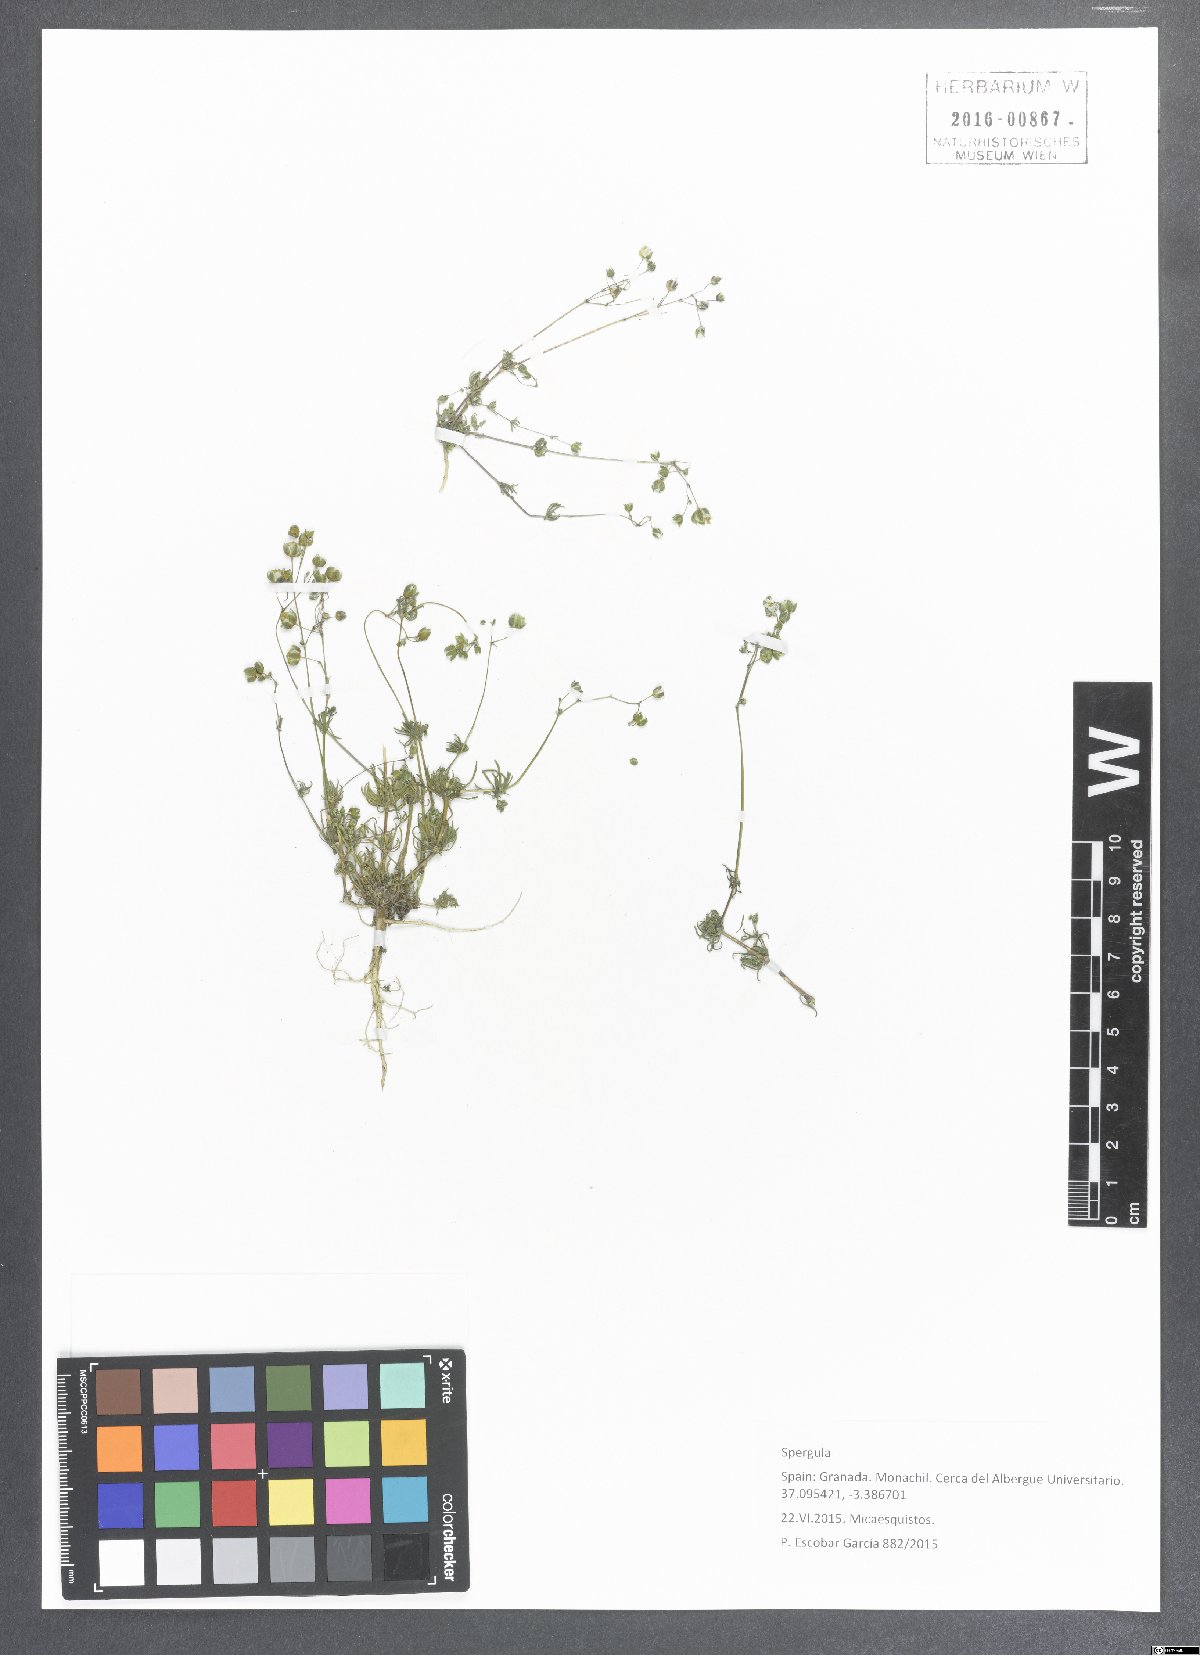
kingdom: Plantae
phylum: Tracheophyta
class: Magnoliopsida
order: Caryophyllales
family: Caryophyllaceae
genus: Spergula
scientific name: Spergula
